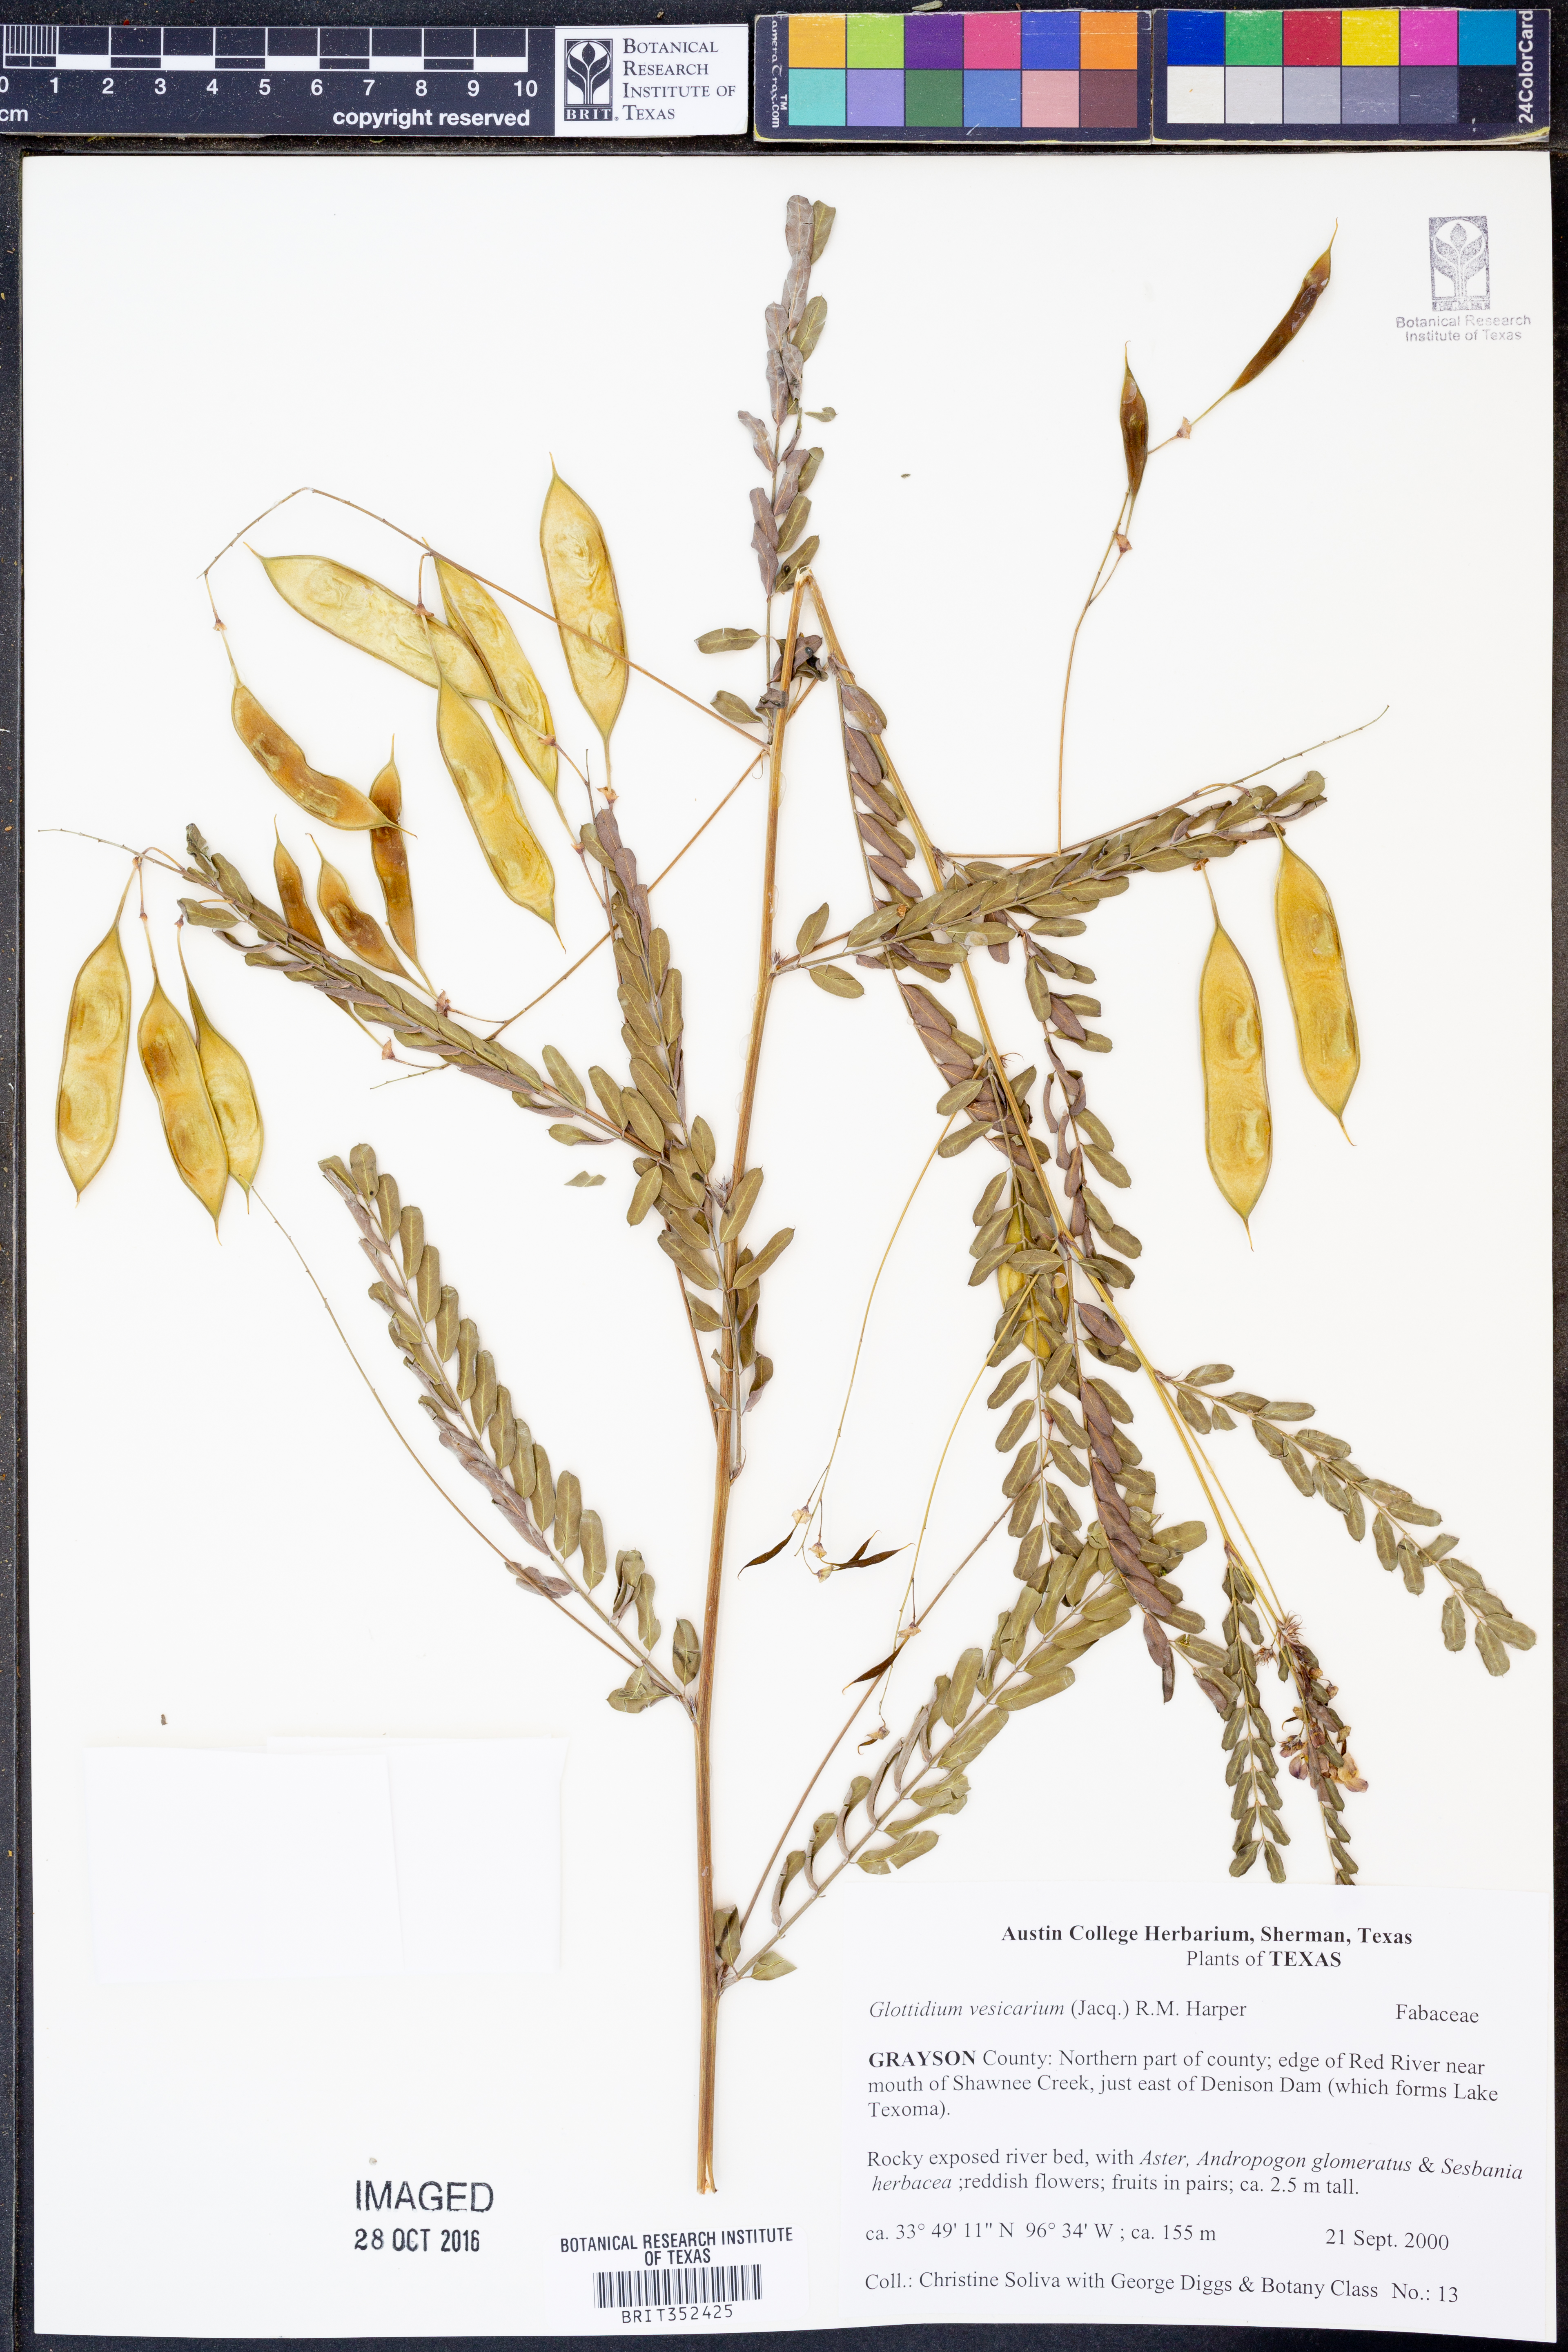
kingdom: Plantae
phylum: Tracheophyta
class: Magnoliopsida
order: Fabales
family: Fabaceae
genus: Sesbania
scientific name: Sesbania vesicaria
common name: Bagpod
